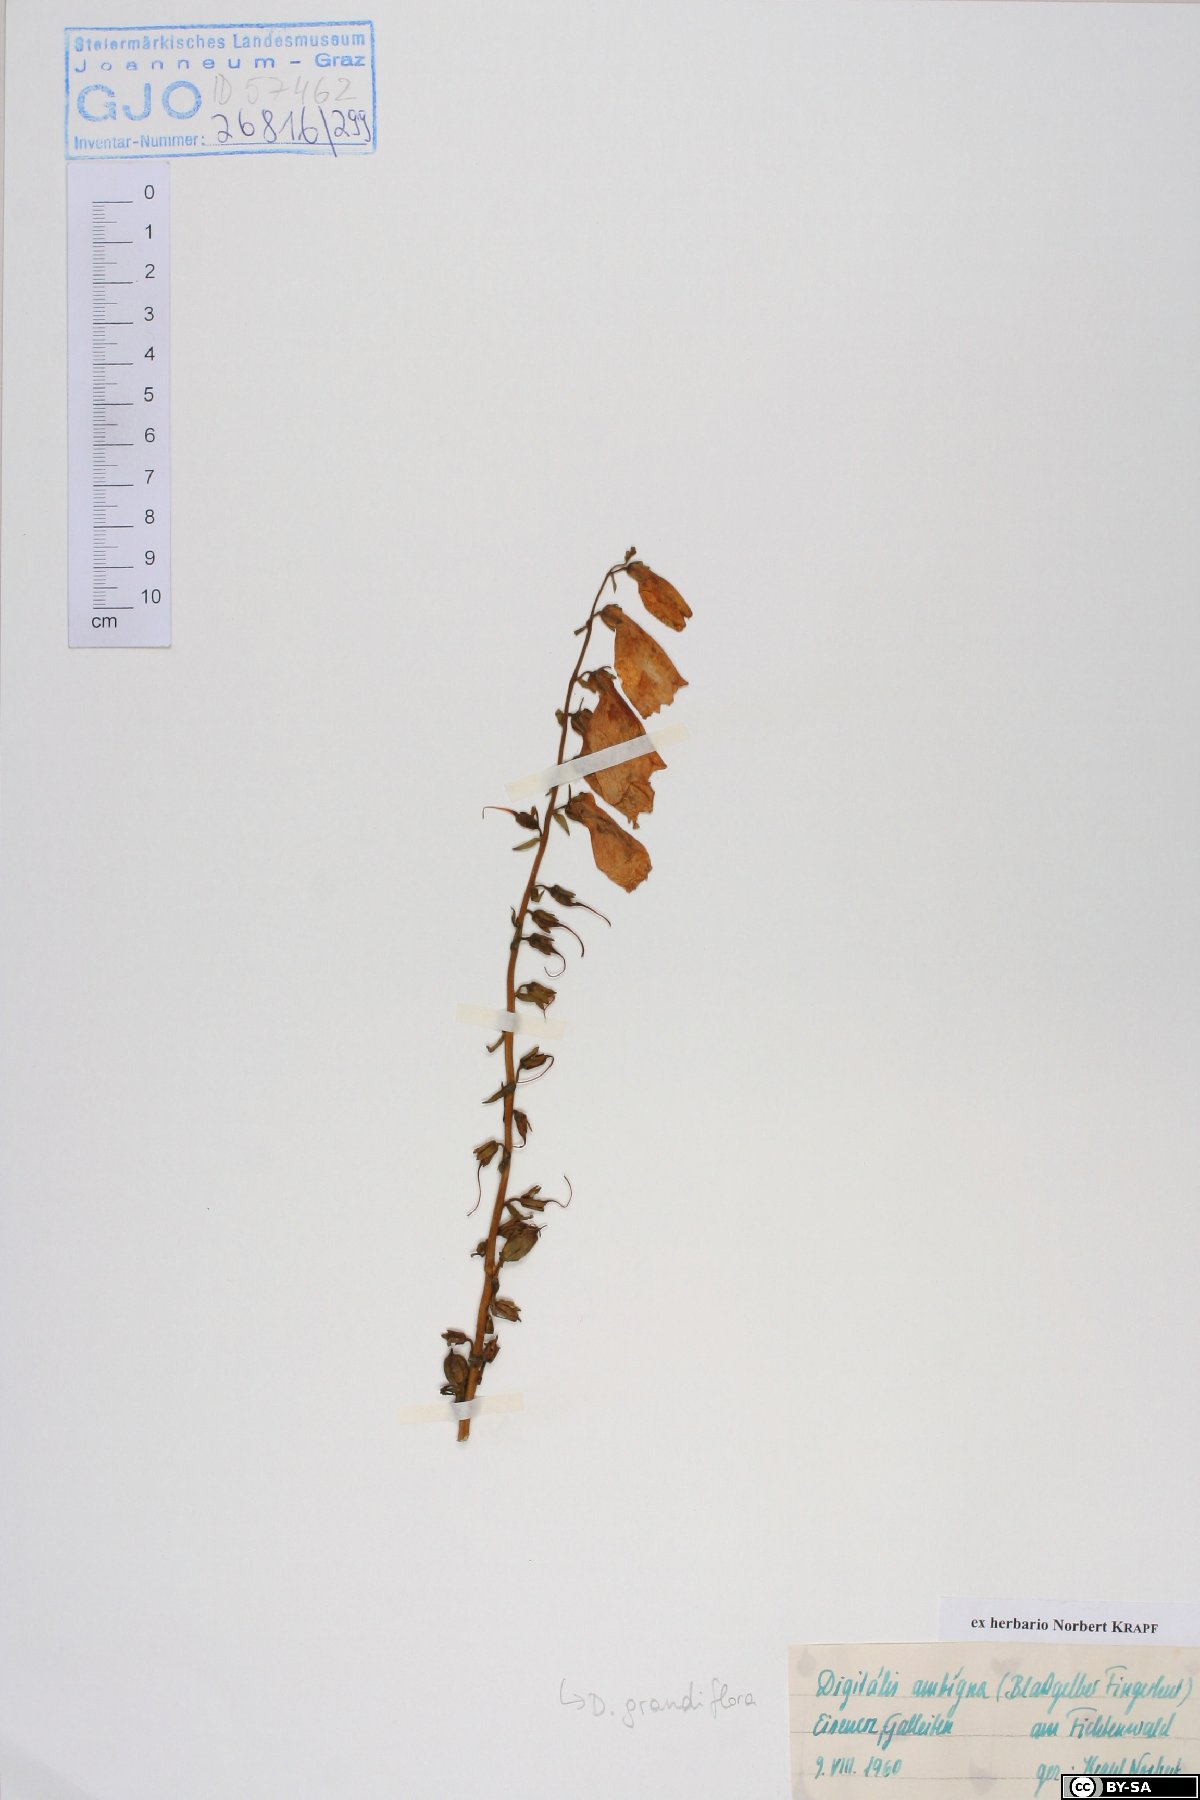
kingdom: Plantae
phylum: Tracheophyta
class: Magnoliopsida
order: Lamiales
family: Plantaginaceae
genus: Digitalis
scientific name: Digitalis grandiflora
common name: Yellow foxglove
